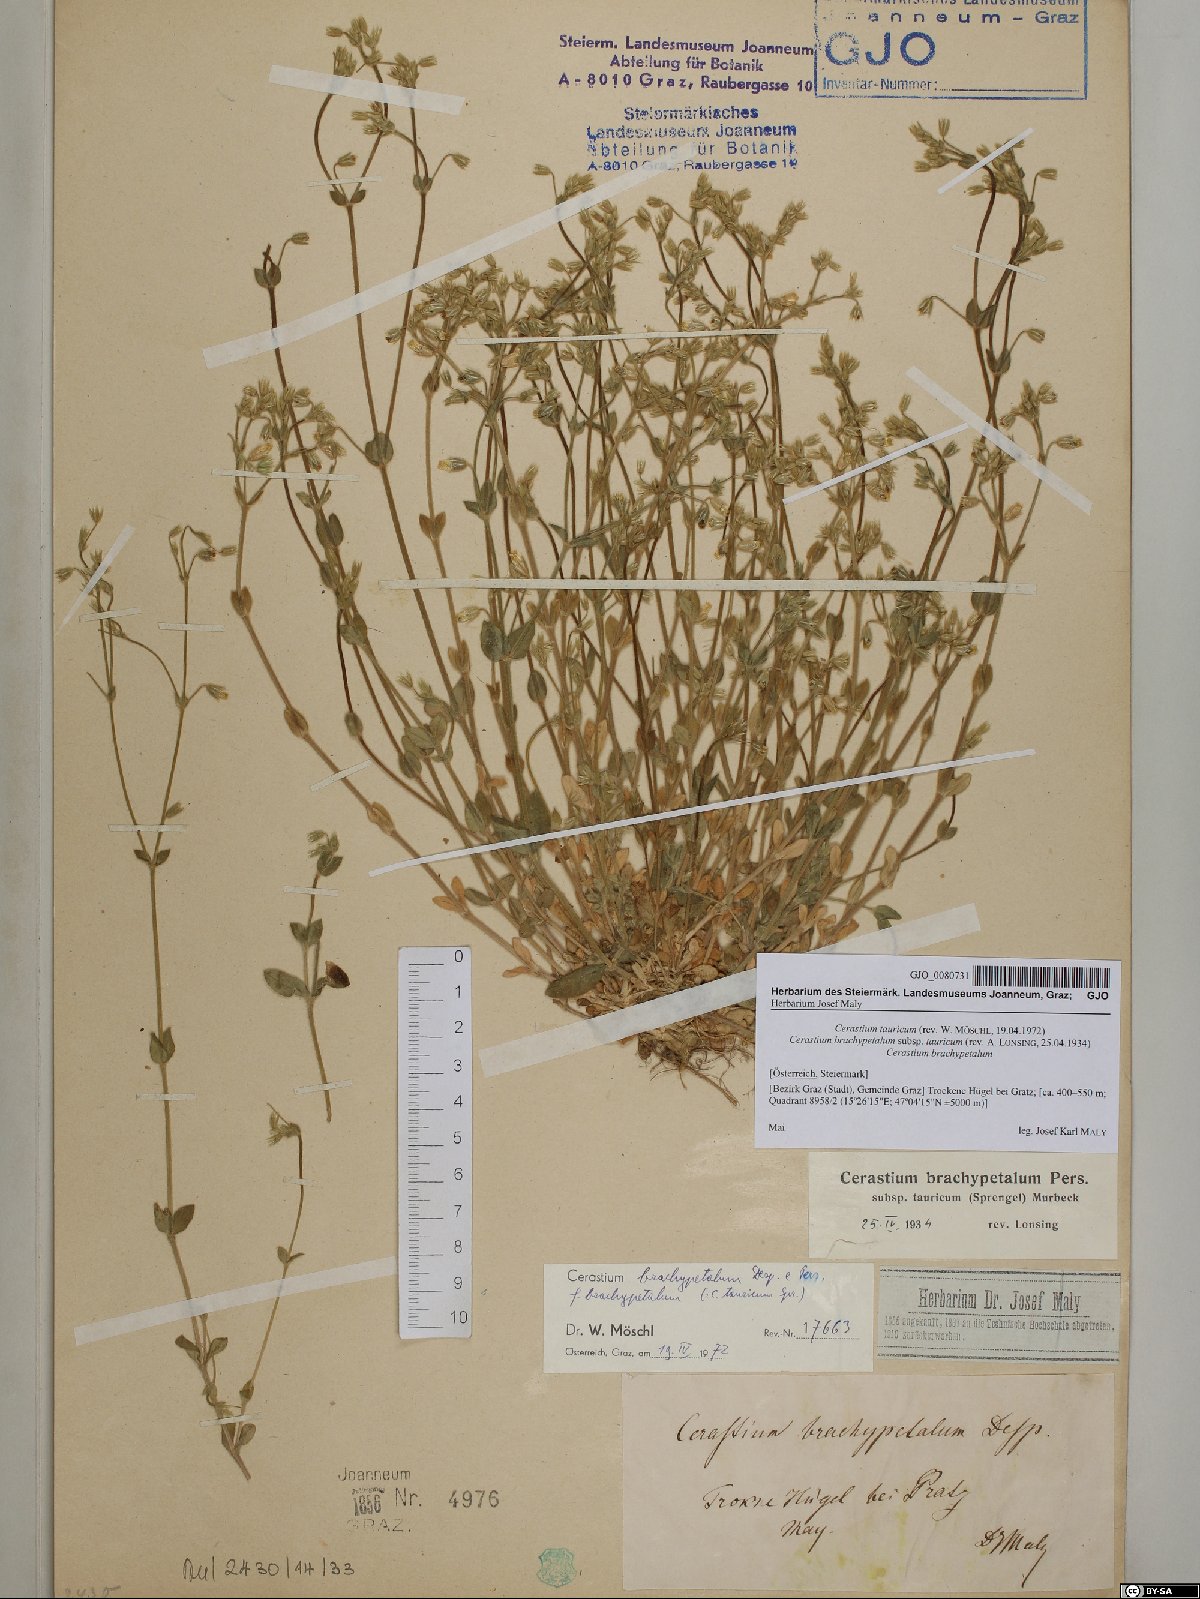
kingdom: Plantae
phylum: Tracheophyta
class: Magnoliopsida
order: Caryophyllales
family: Caryophyllaceae
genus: Cerastium
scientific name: Cerastium brachypetalum
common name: Grey mouse-ear
